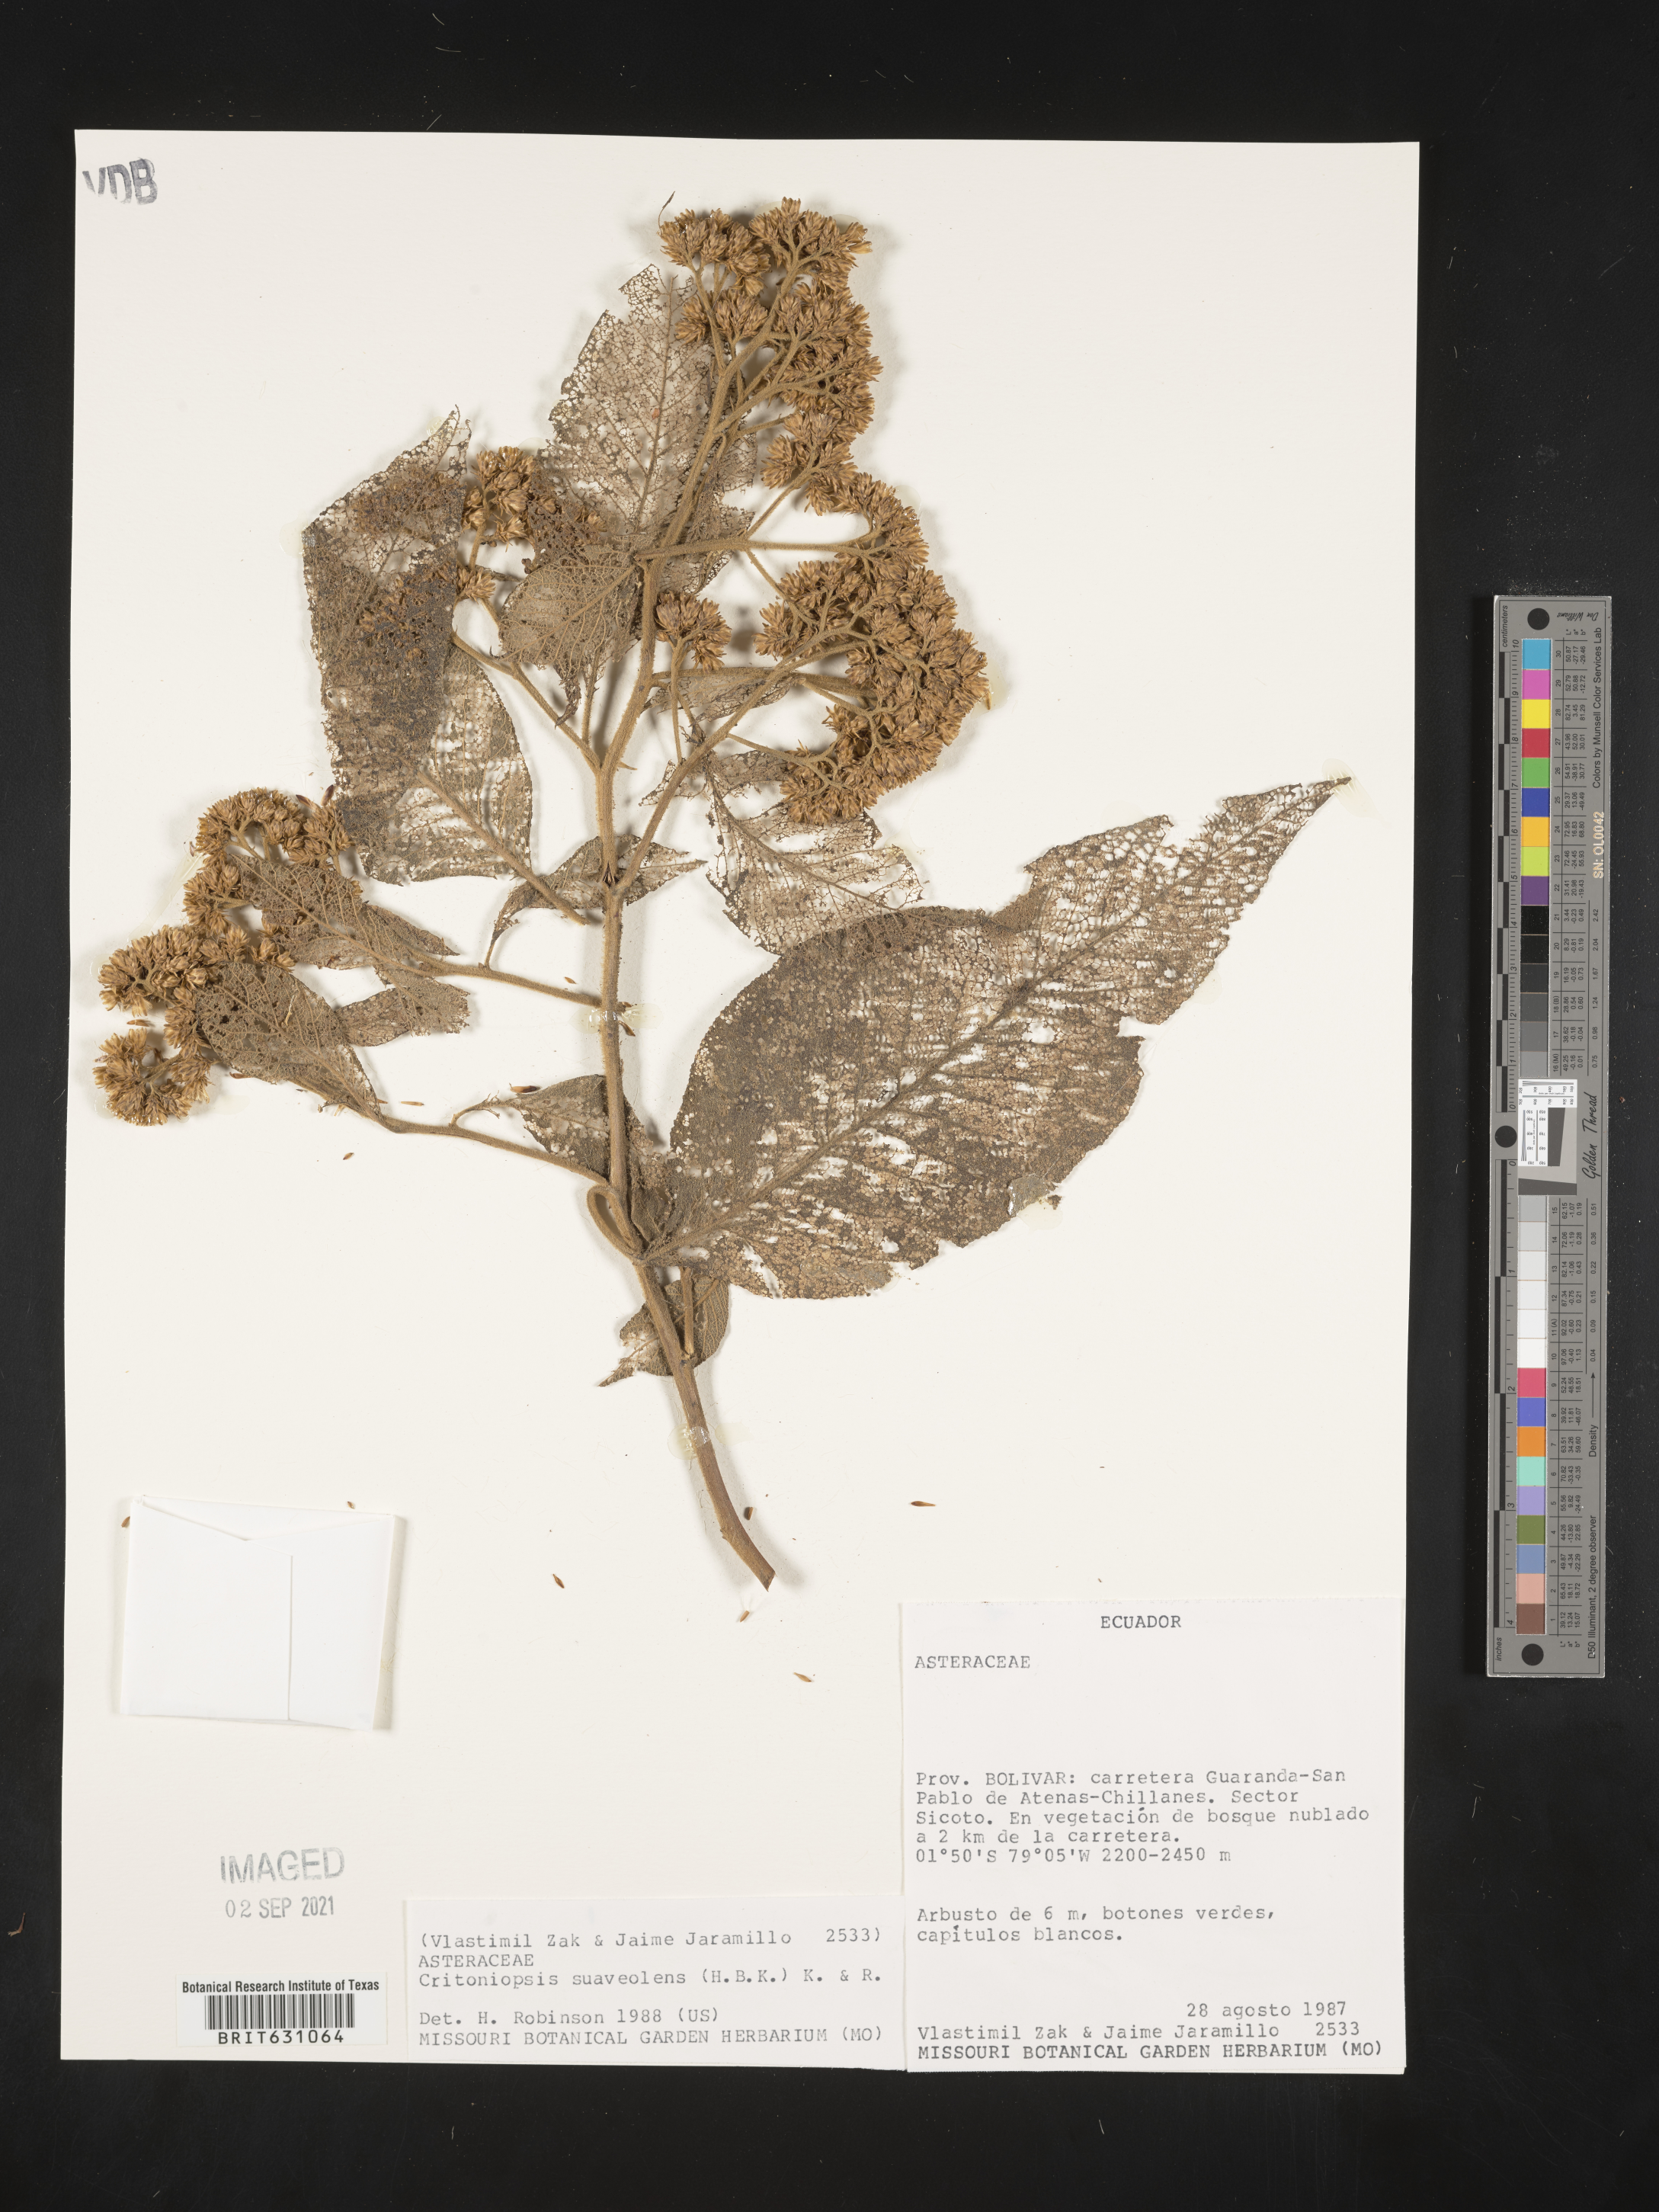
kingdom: Plantae
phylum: Tracheophyta
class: Magnoliopsida
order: Asterales
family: Asteraceae
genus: Critoniopsis
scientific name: Critoniopsis suaveolens
